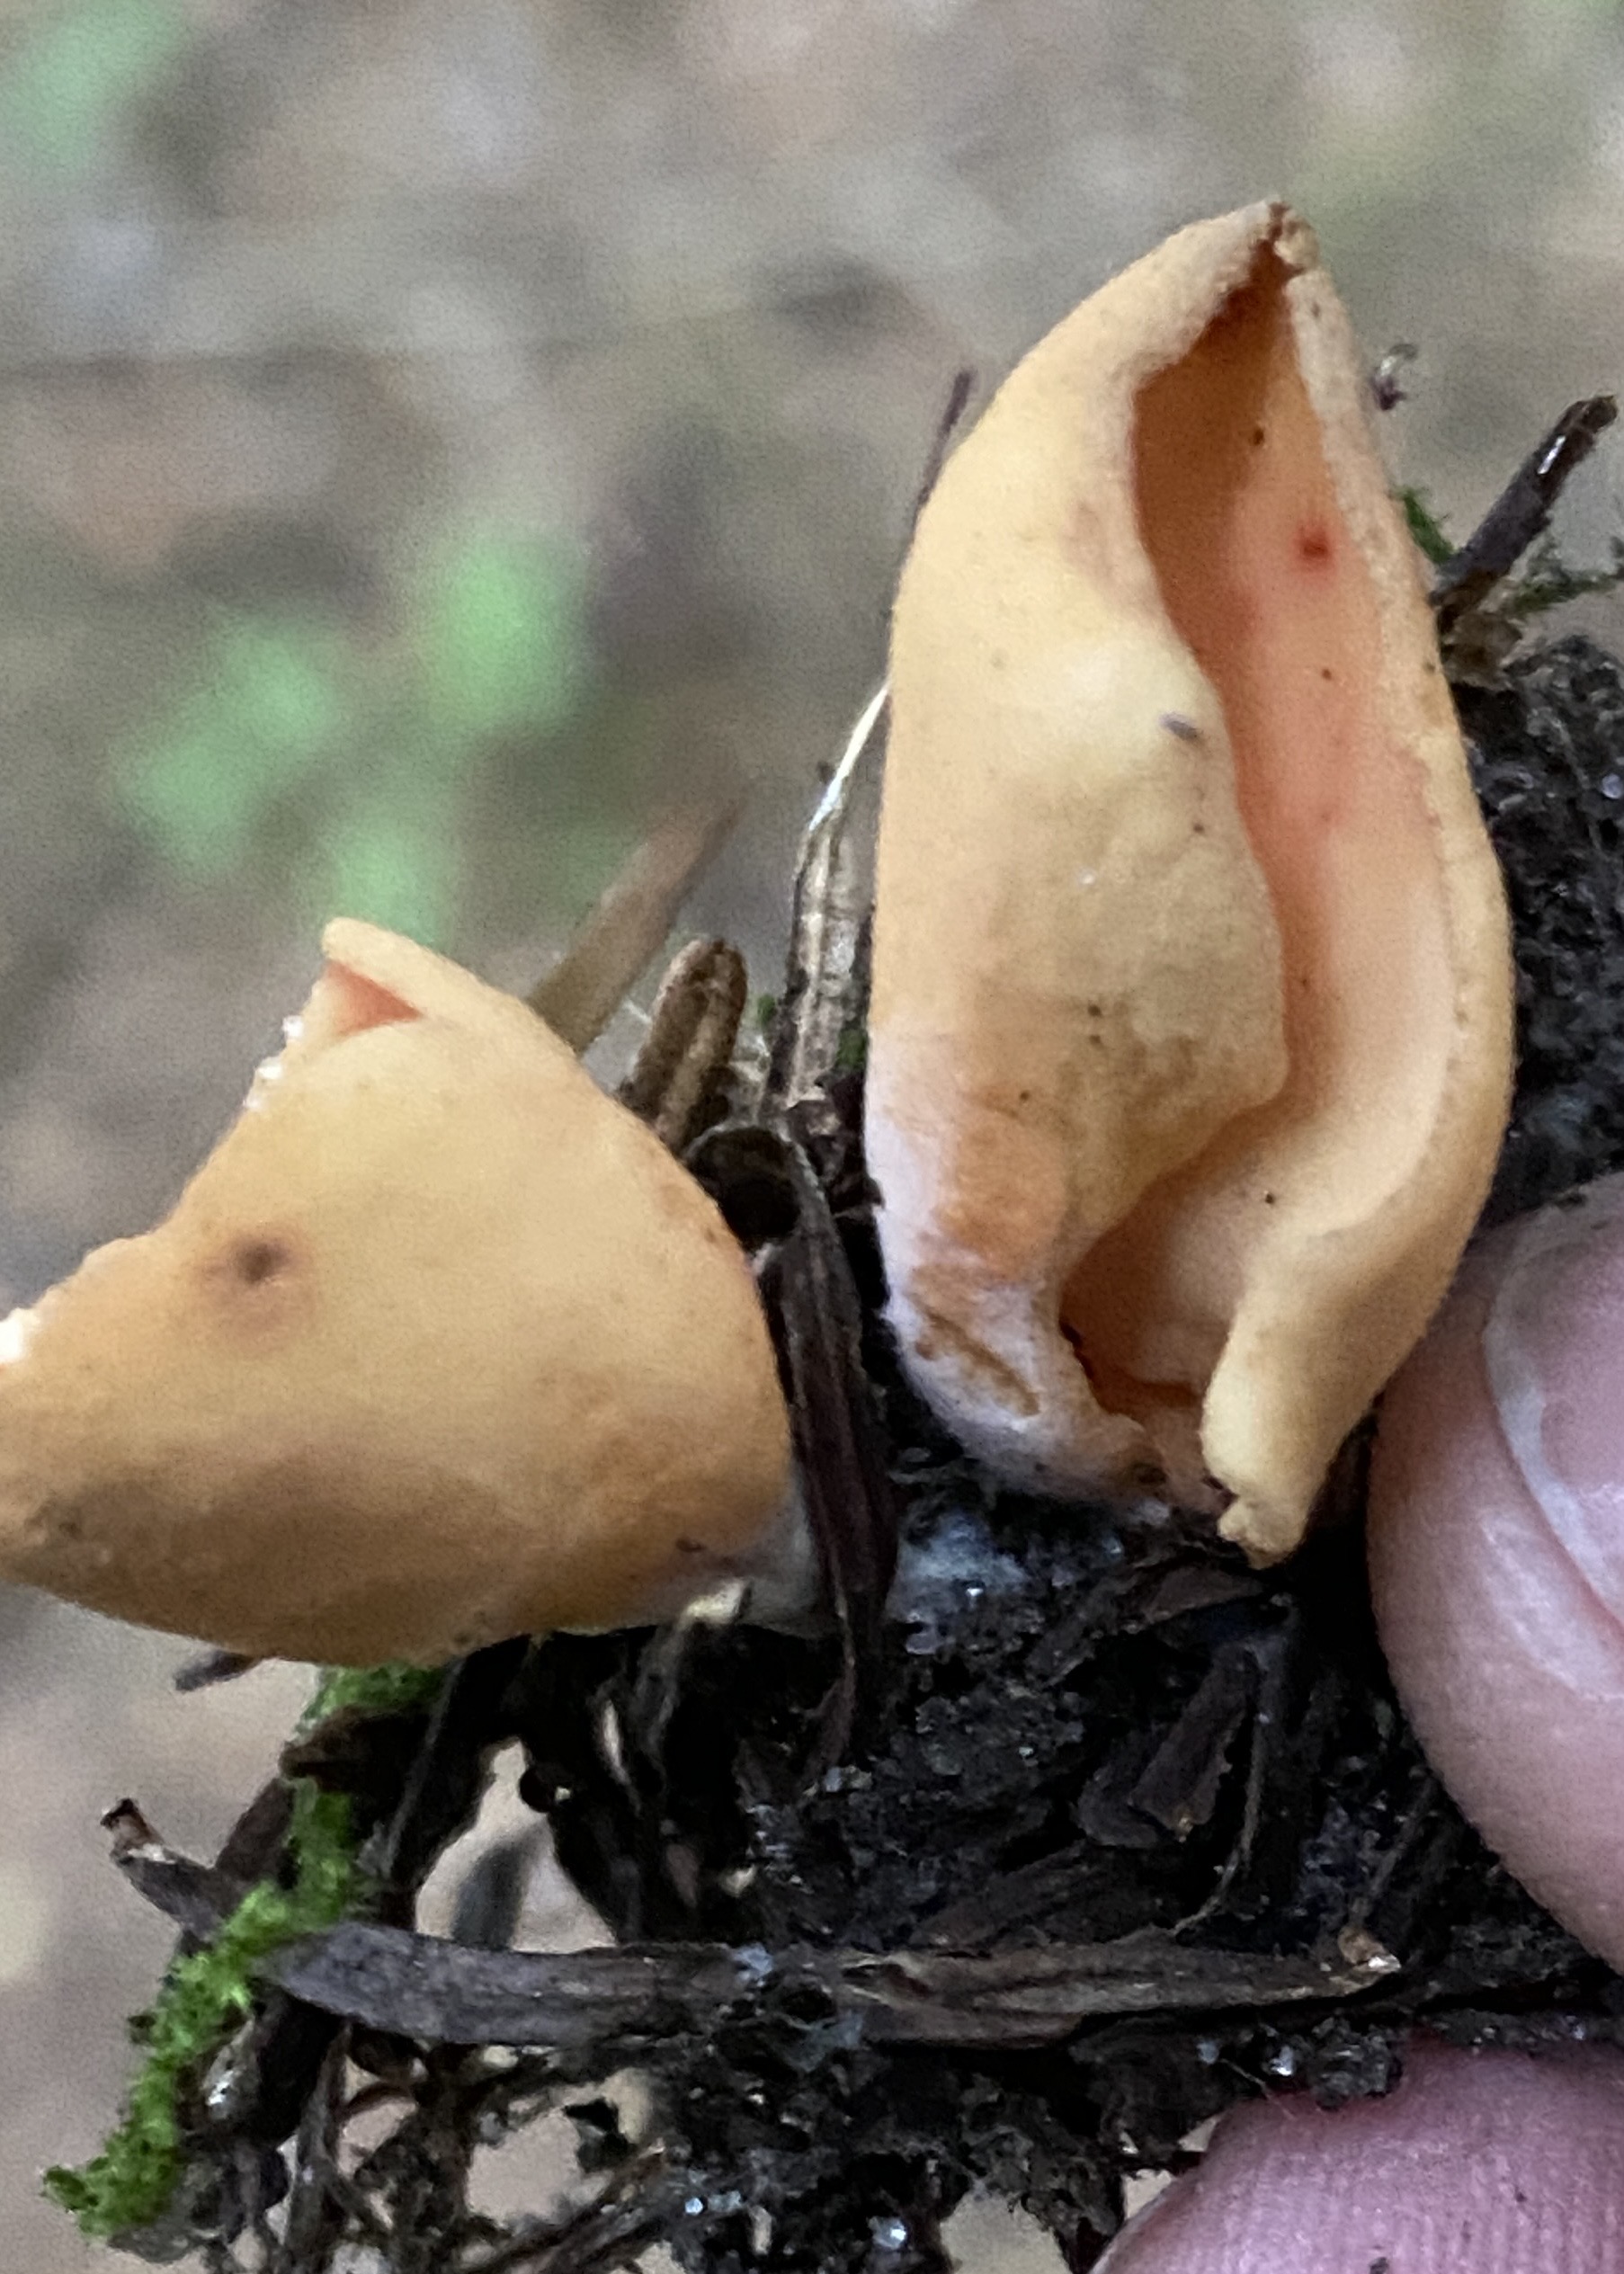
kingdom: Fungi
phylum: Ascomycota
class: Pezizomycetes
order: Pezizales
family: Otideaceae
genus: Otidea
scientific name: Otidea onotica
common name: æsel-ørebæger
